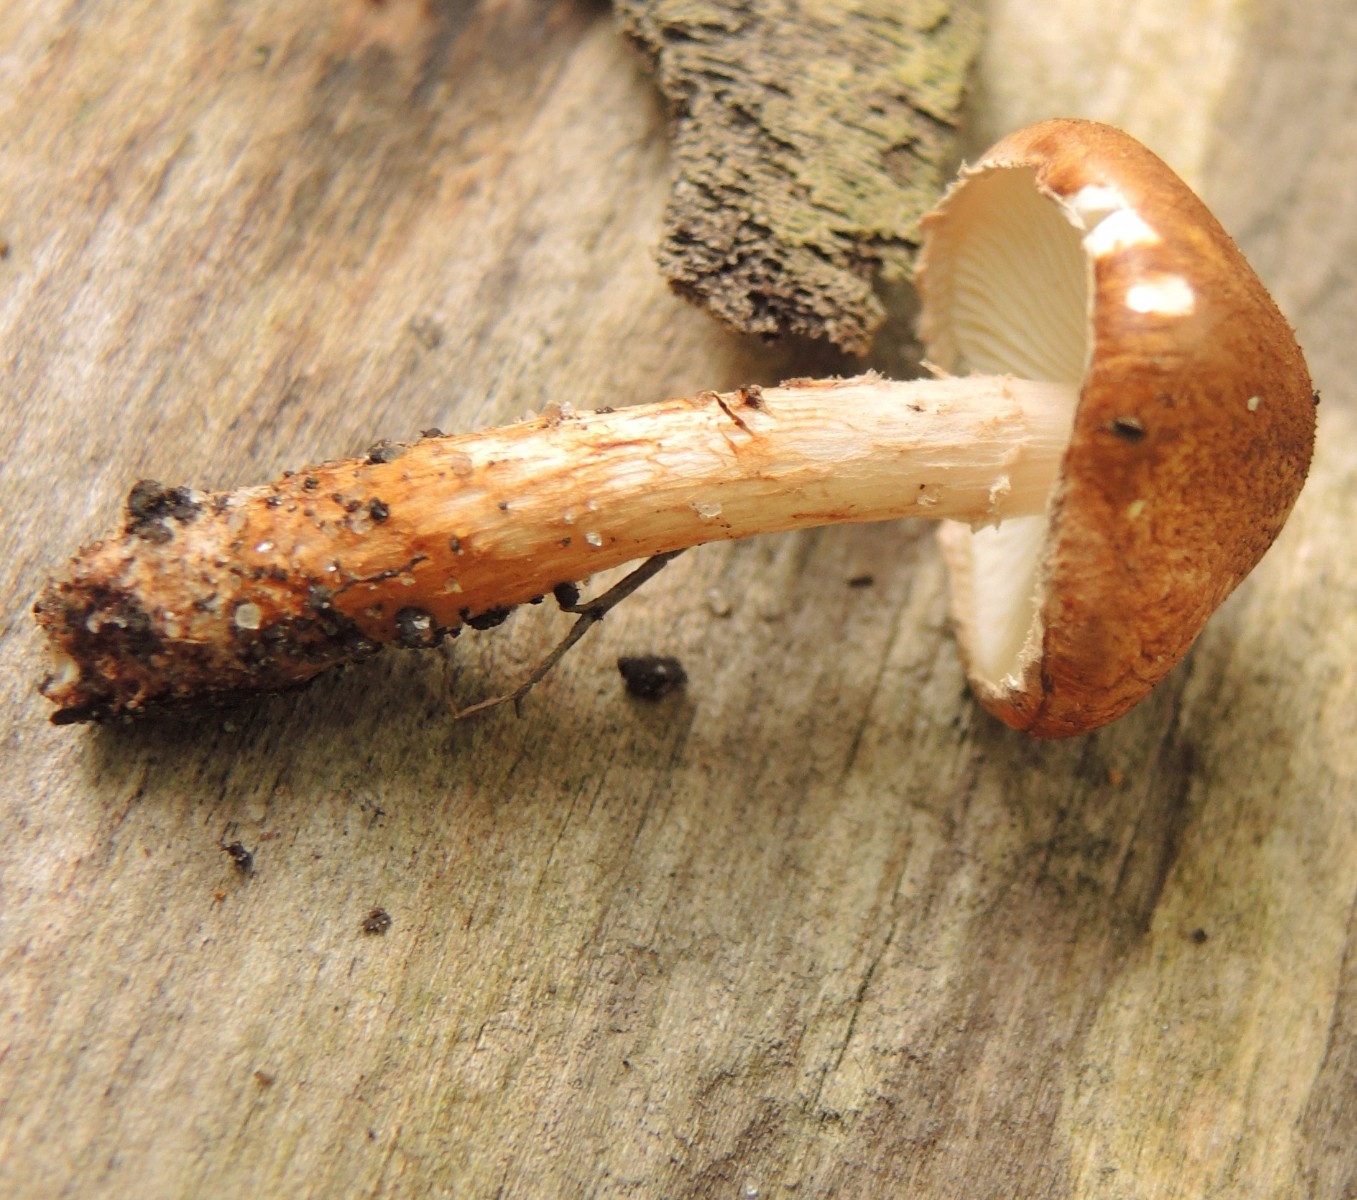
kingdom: Fungi
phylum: Basidiomycota
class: Agaricomycetes
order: Agaricales
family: Agaricaceae
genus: Leucocoprinus
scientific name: Leucocoprinus straminellus
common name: rustbrun parasolhat
